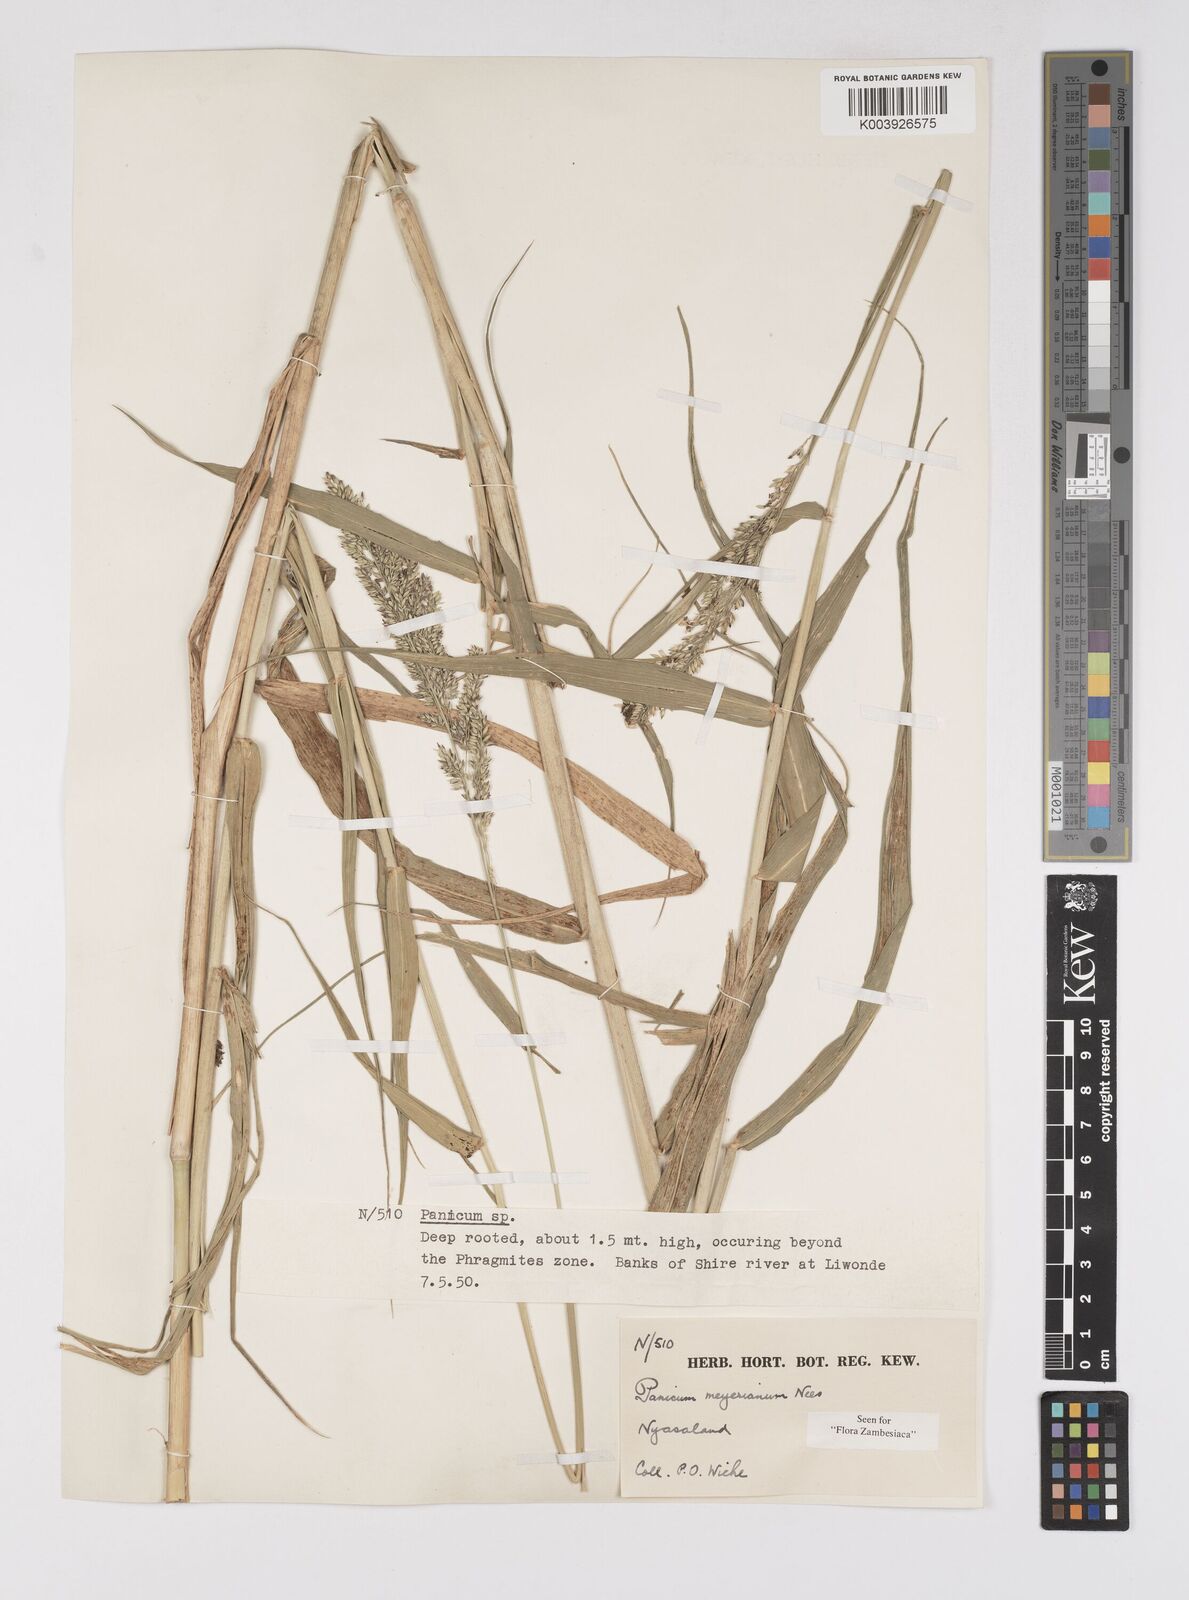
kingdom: Plantae
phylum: Tracheophyta
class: Liliopsida
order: Poales
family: Poaceae
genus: Eriochloa
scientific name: Eriochloa meyeriana
